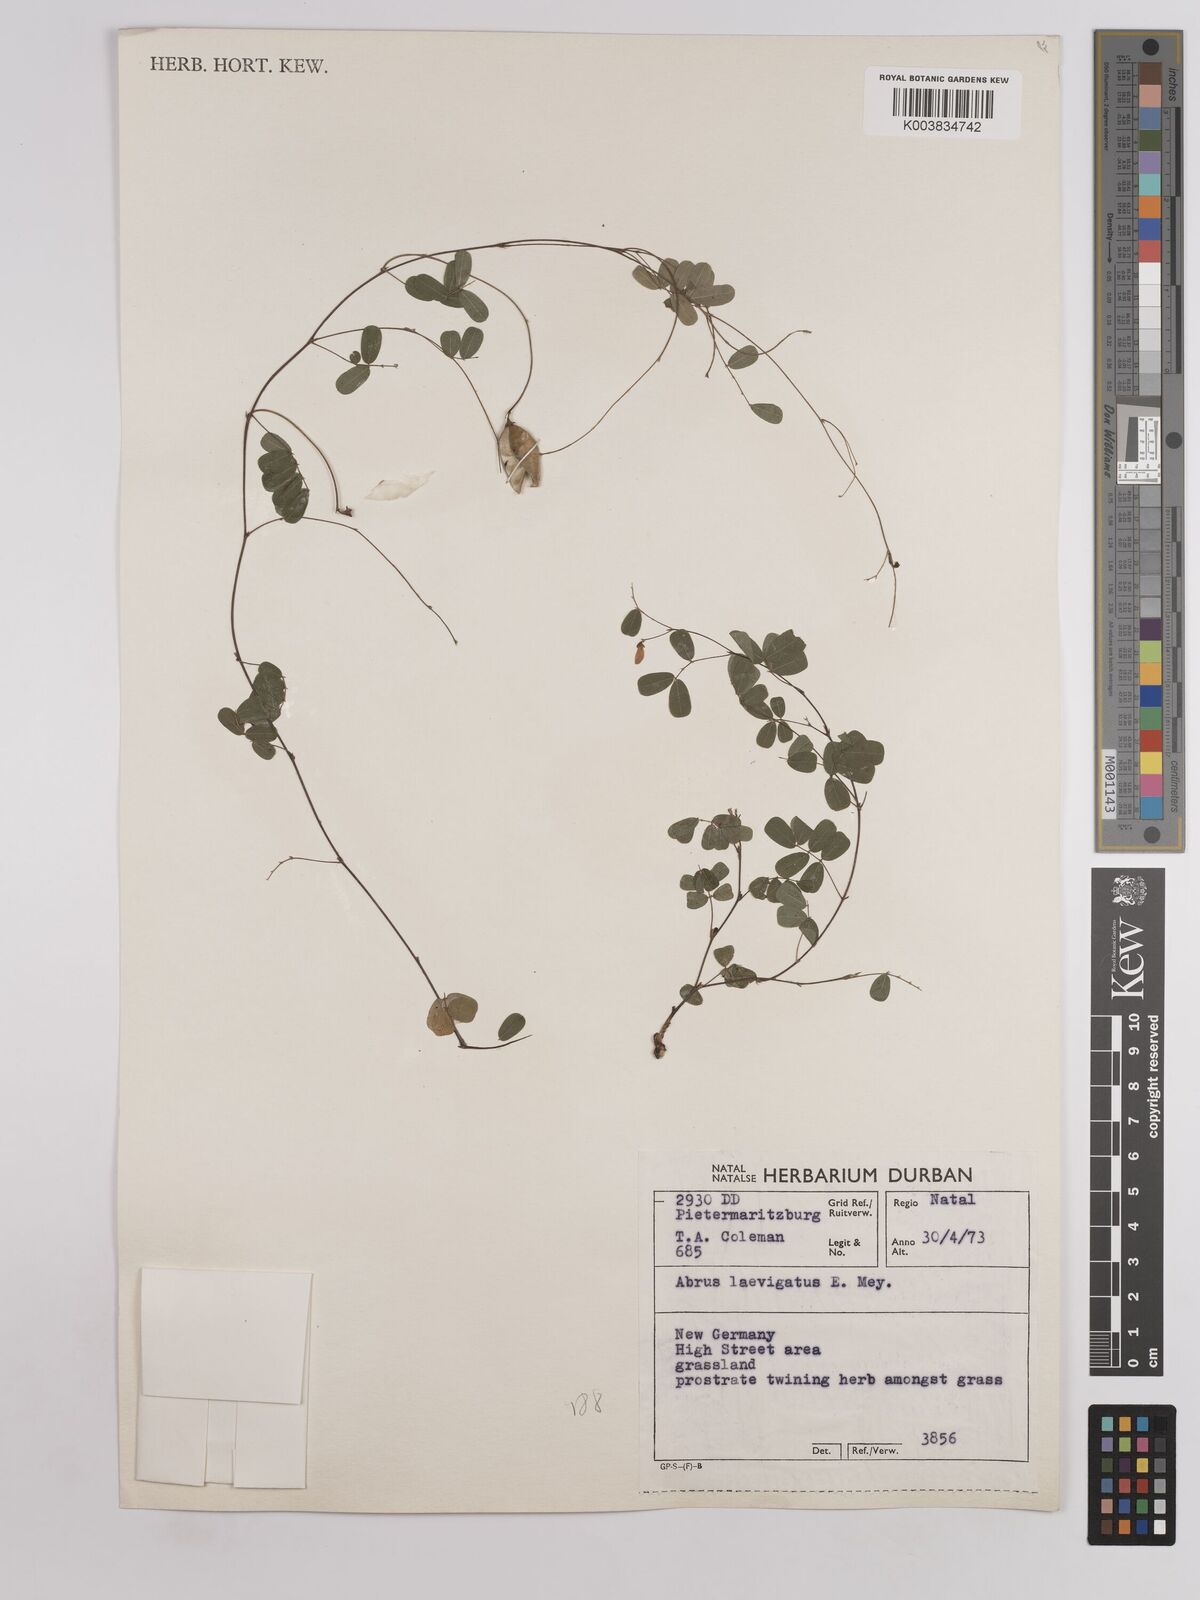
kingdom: Plantae
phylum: Tracheophyta
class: Magnoliopsida
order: Fabales
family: Fabaceae
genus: Abrus
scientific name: Abrus laevigatus
